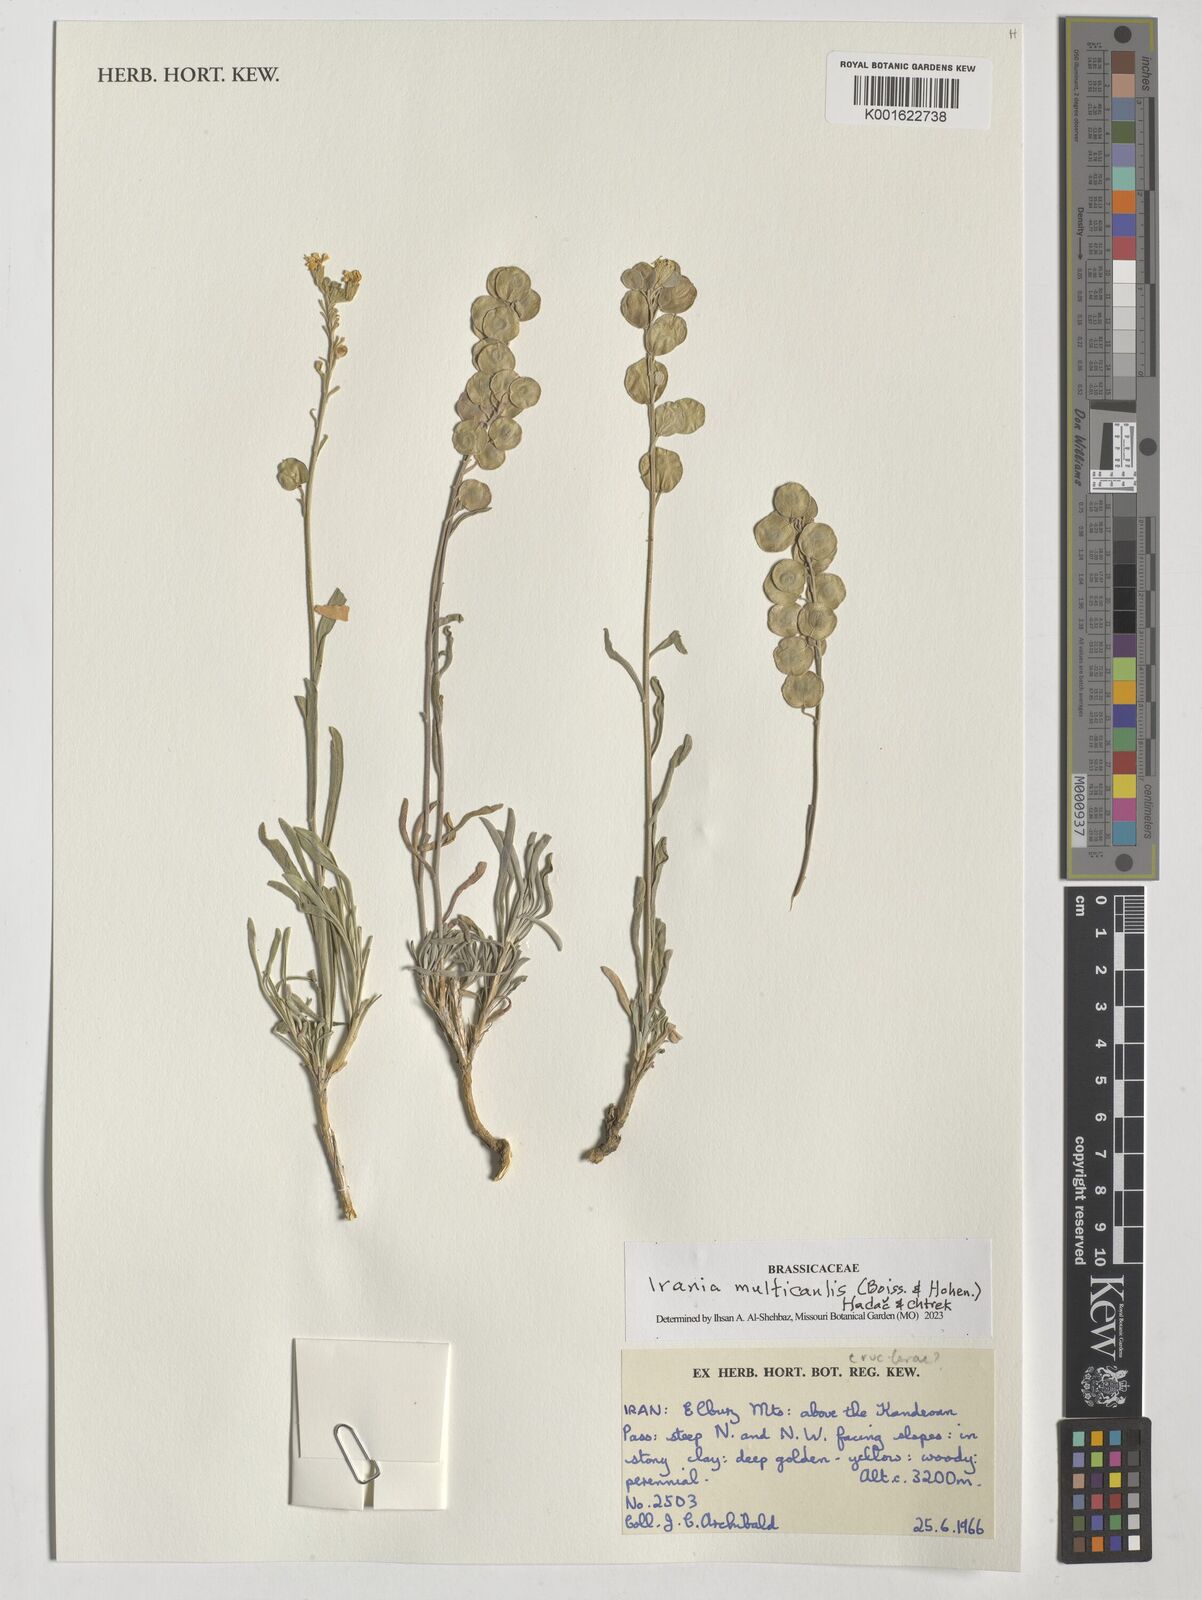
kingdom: Plantae
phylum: Tracheophyta
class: Magnoliopsida
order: Brassicales
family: Brassicaceae
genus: Irania
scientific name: Irania multicaulis
